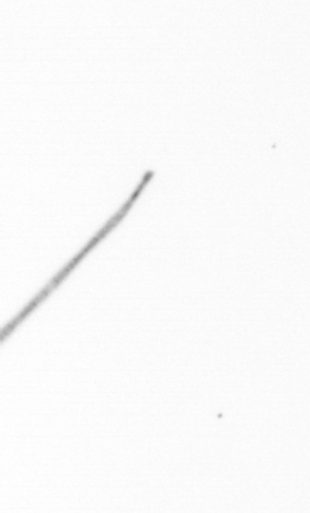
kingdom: Chromista
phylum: Ochrophyta
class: Bacillariophyceae
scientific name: Bacillariophyceae
